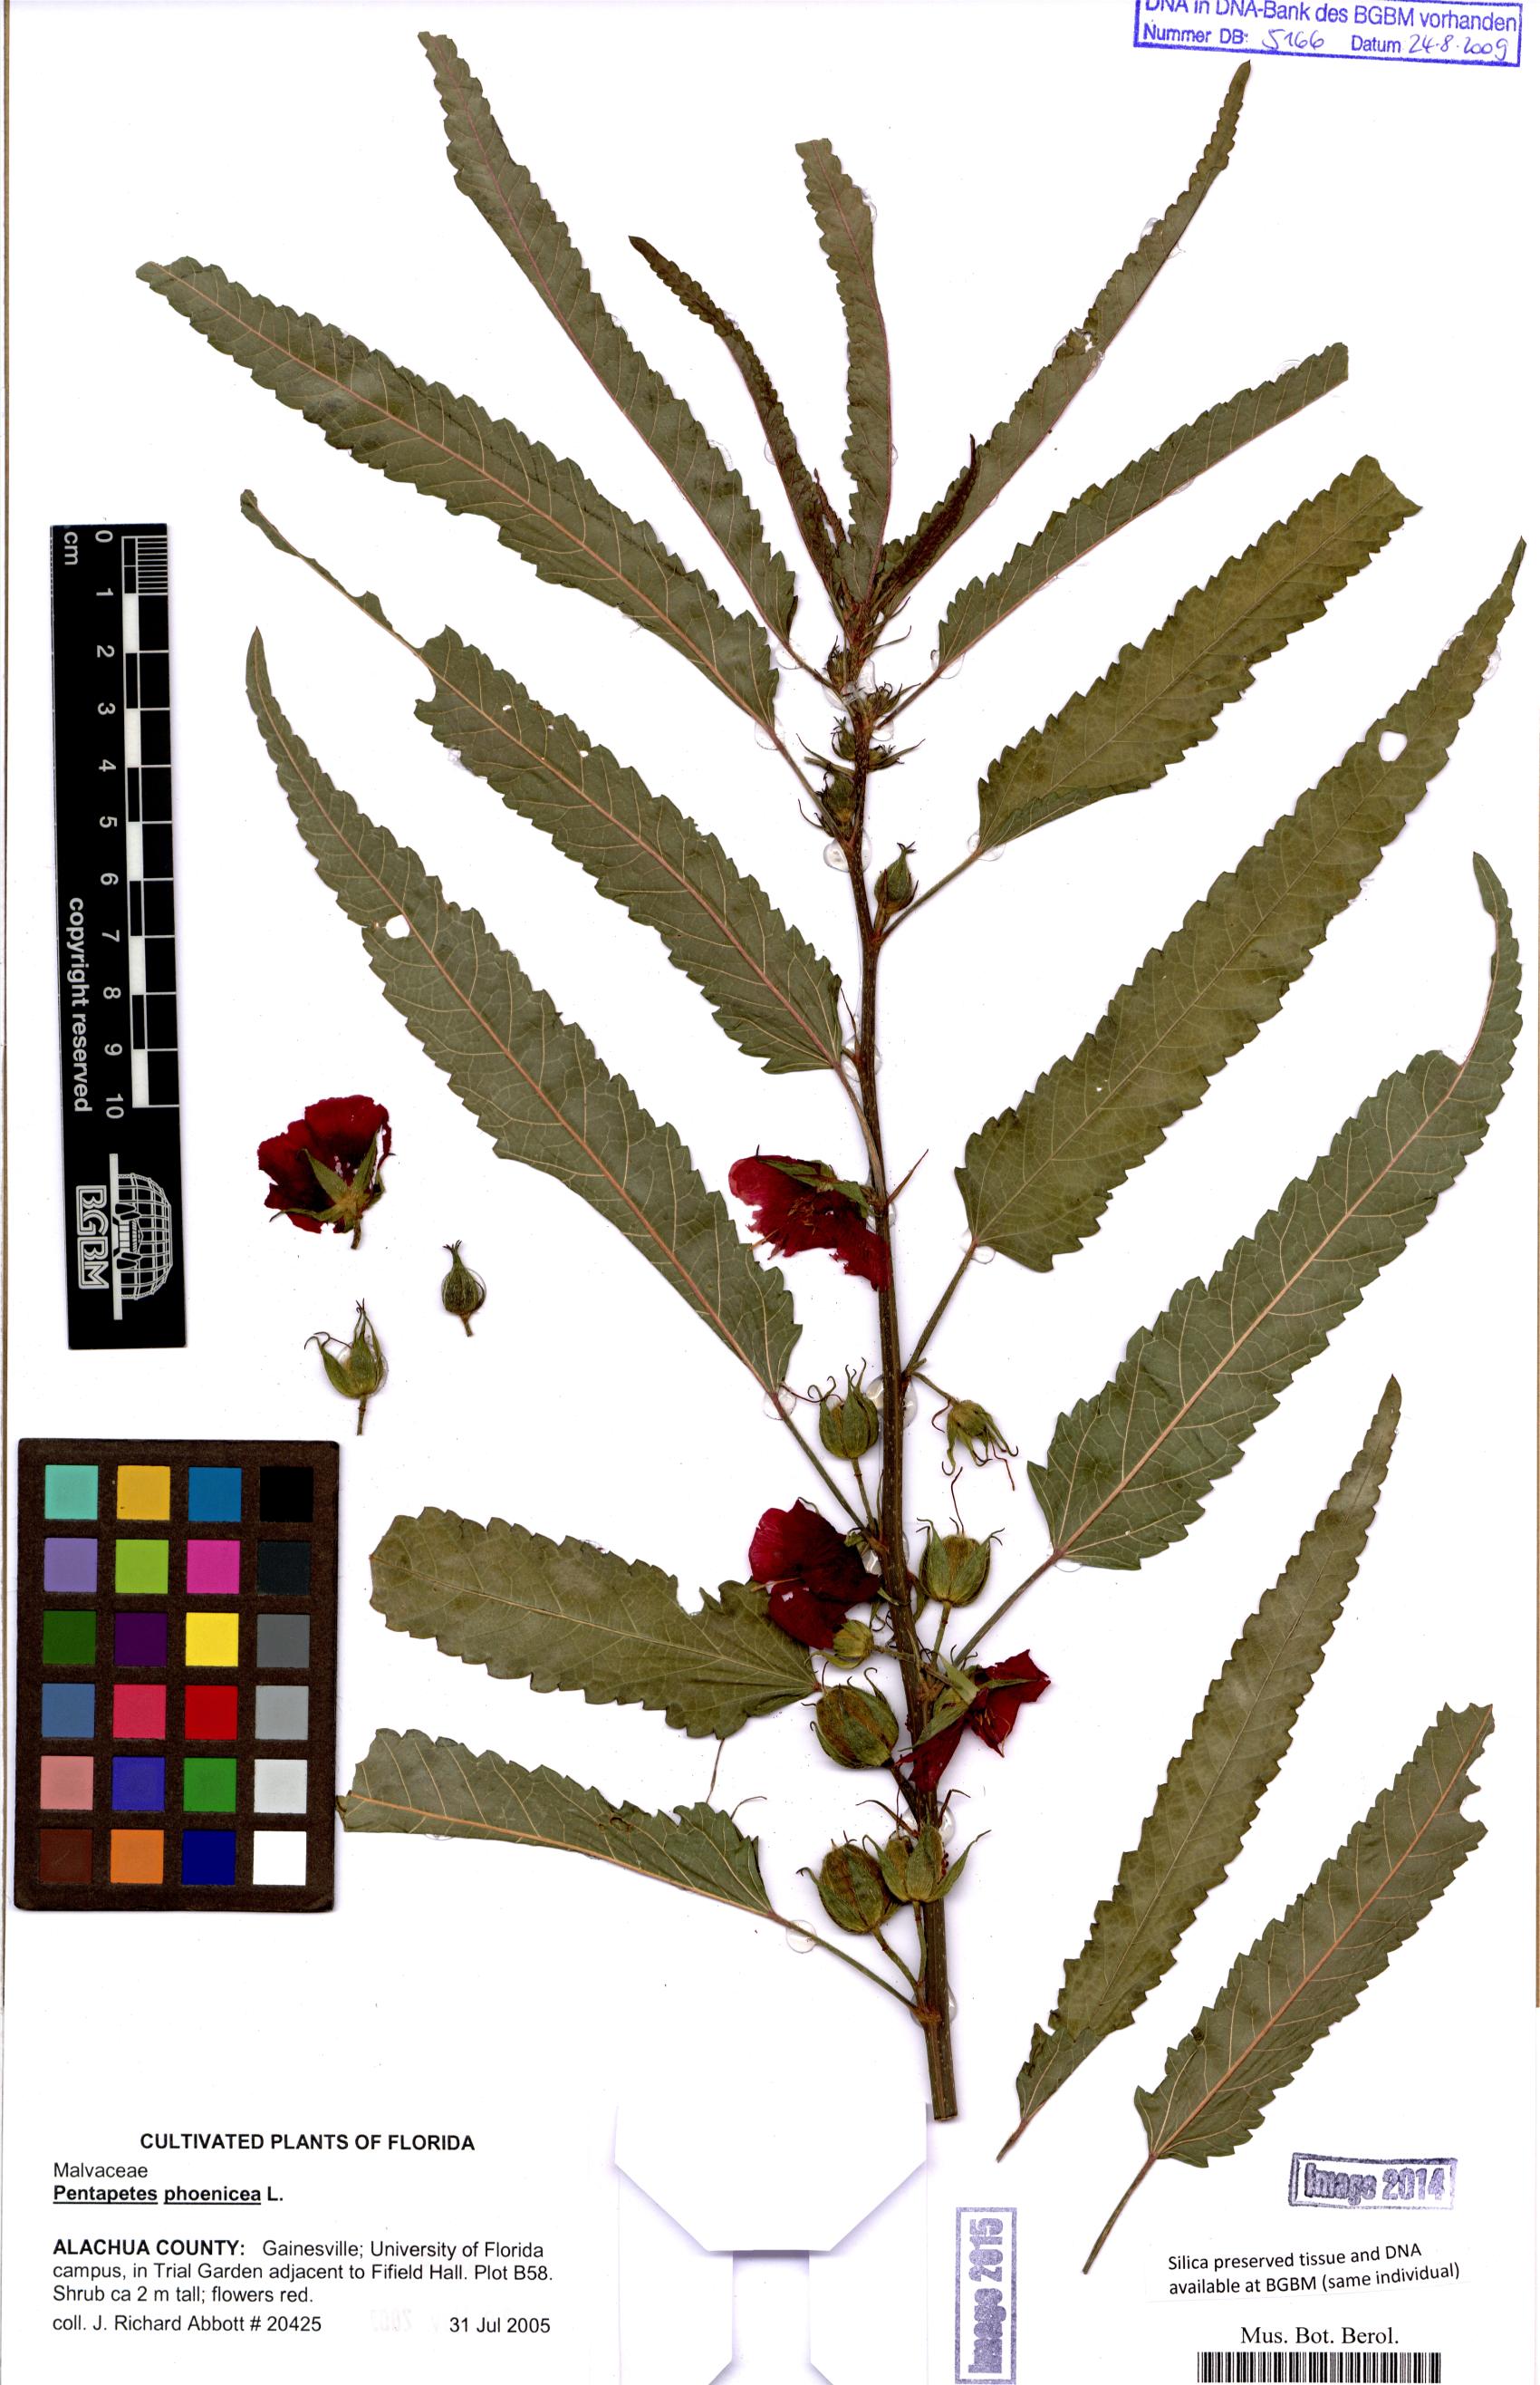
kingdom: Plantae
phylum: Tracheophyta
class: Magnoliopsida
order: Malvales
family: Malvaceae
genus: Pentapetes
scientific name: Pentapetes phoenicea
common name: Copper-cups
